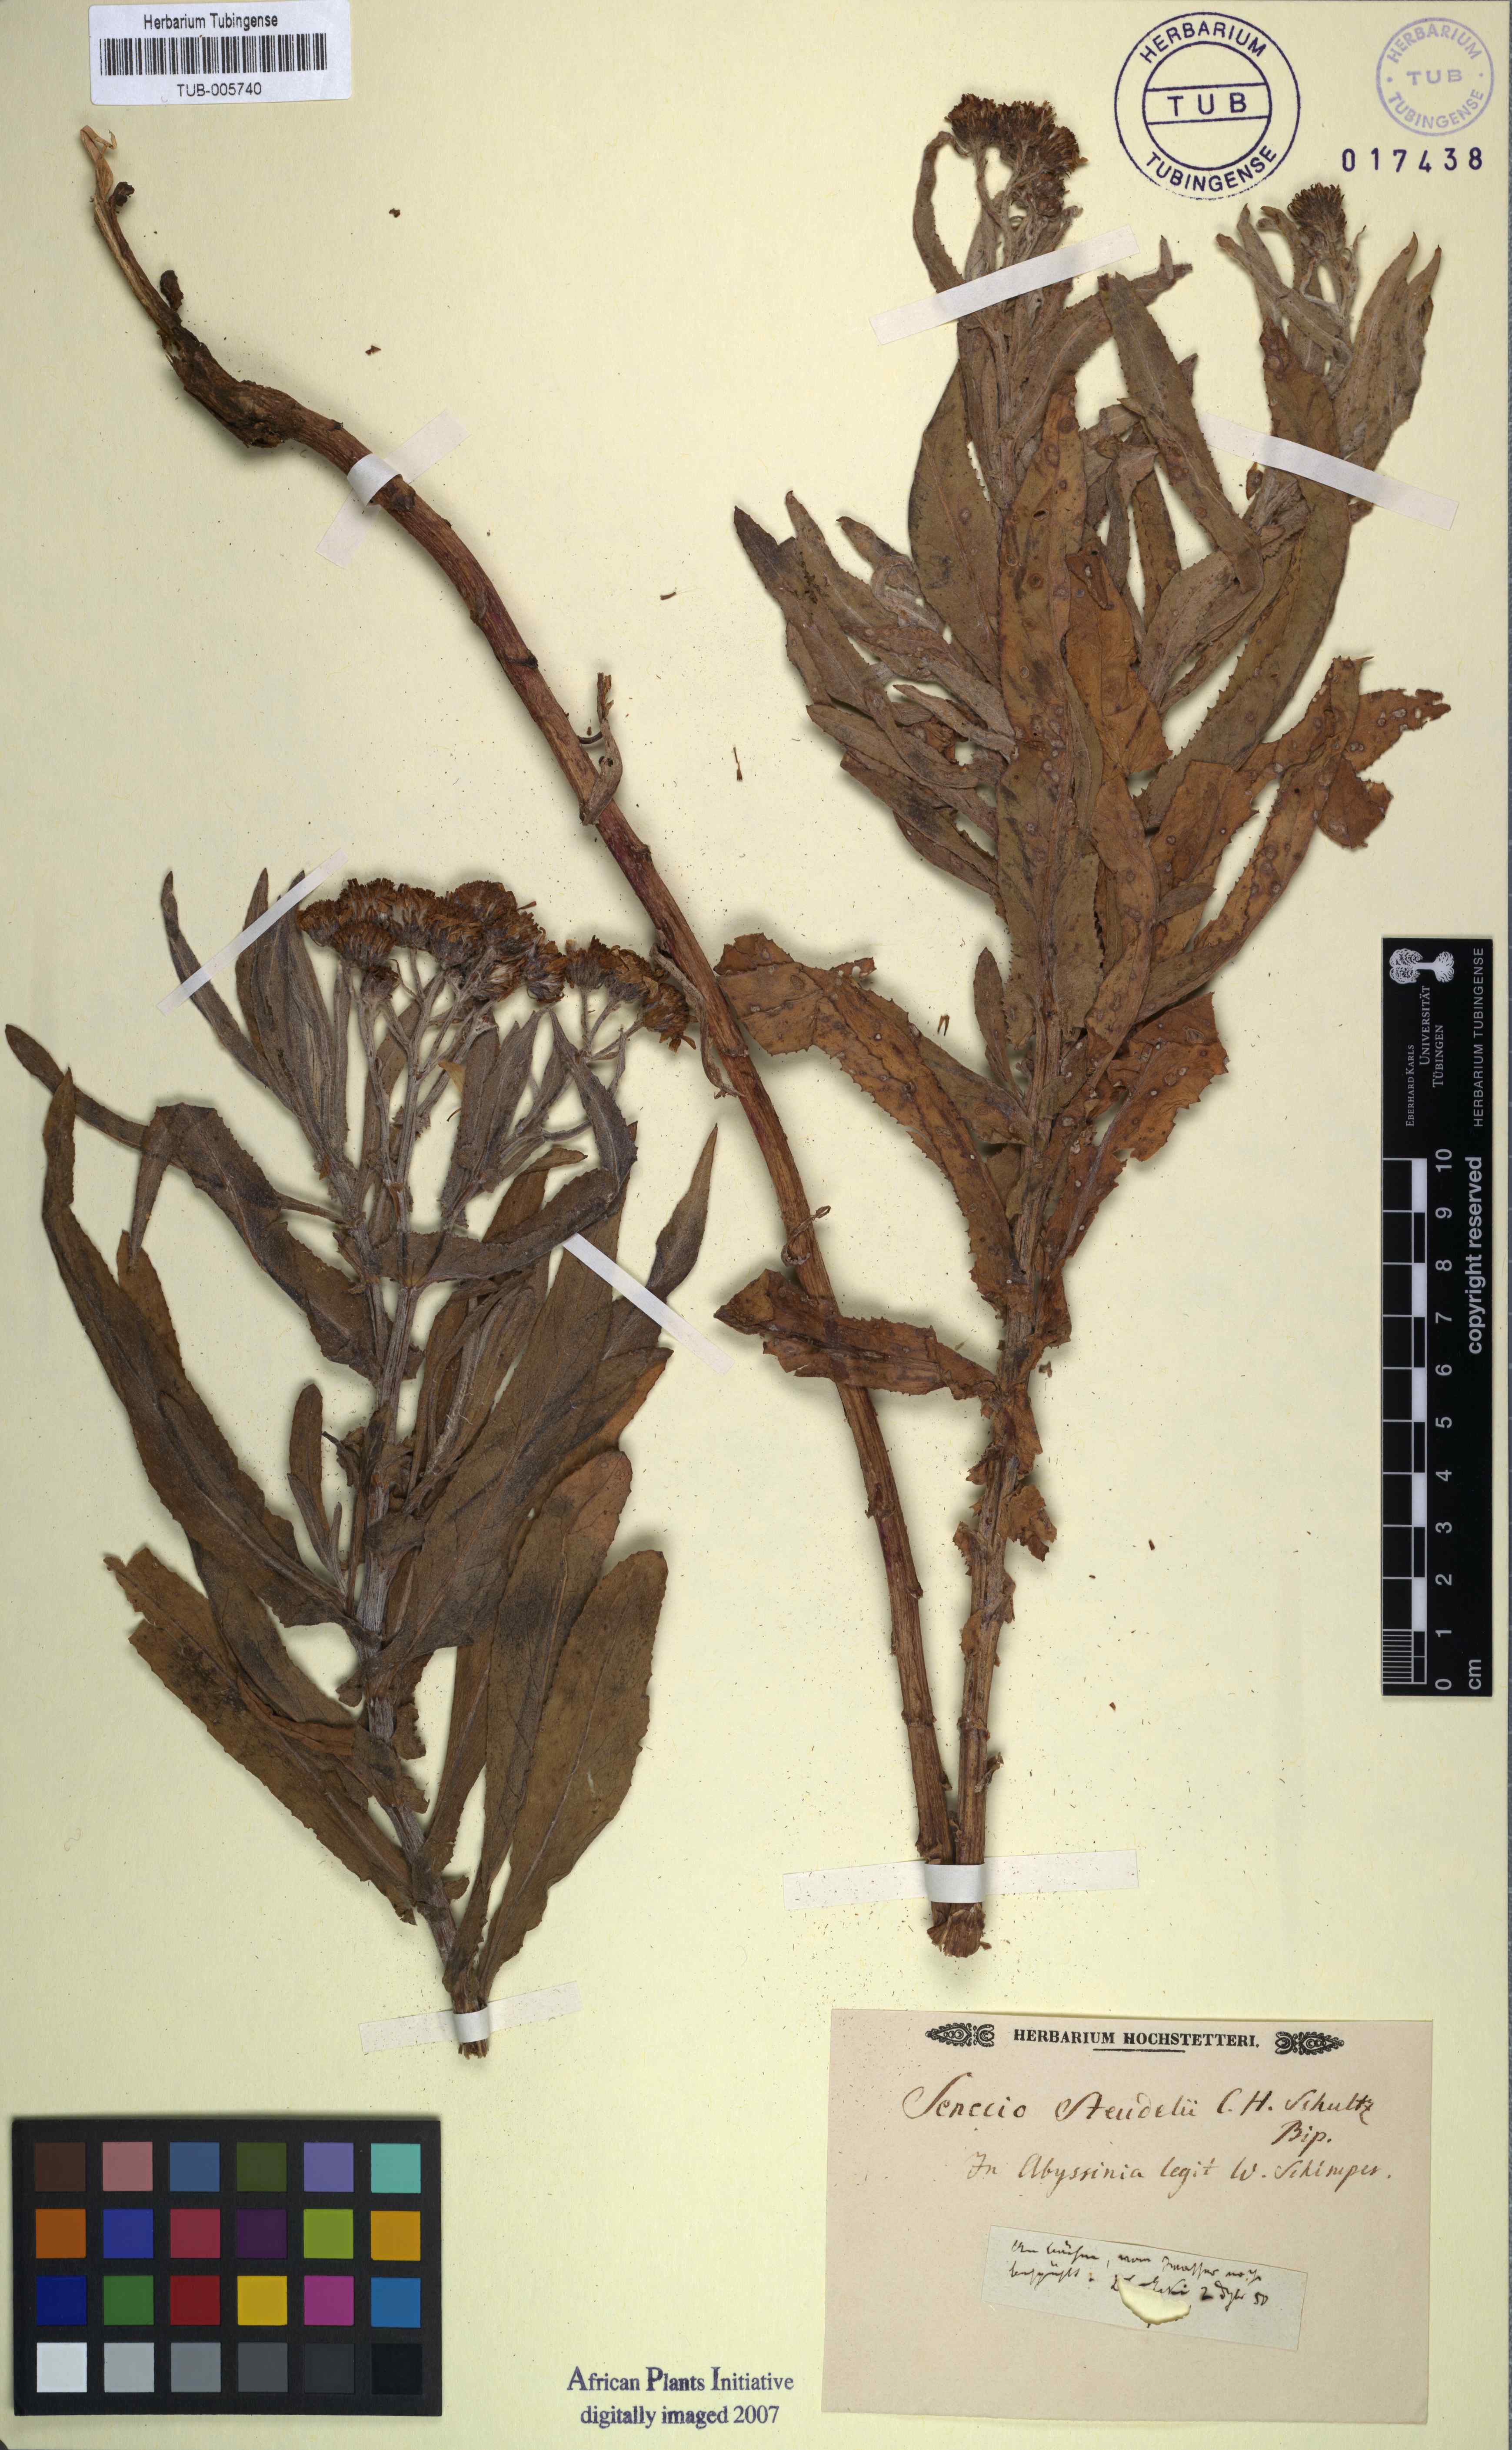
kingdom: Plantae
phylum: Tracheophyta
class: Magnoliopsida
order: Asterales
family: Asteraceae
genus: Senecio
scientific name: Senecio steudelii
